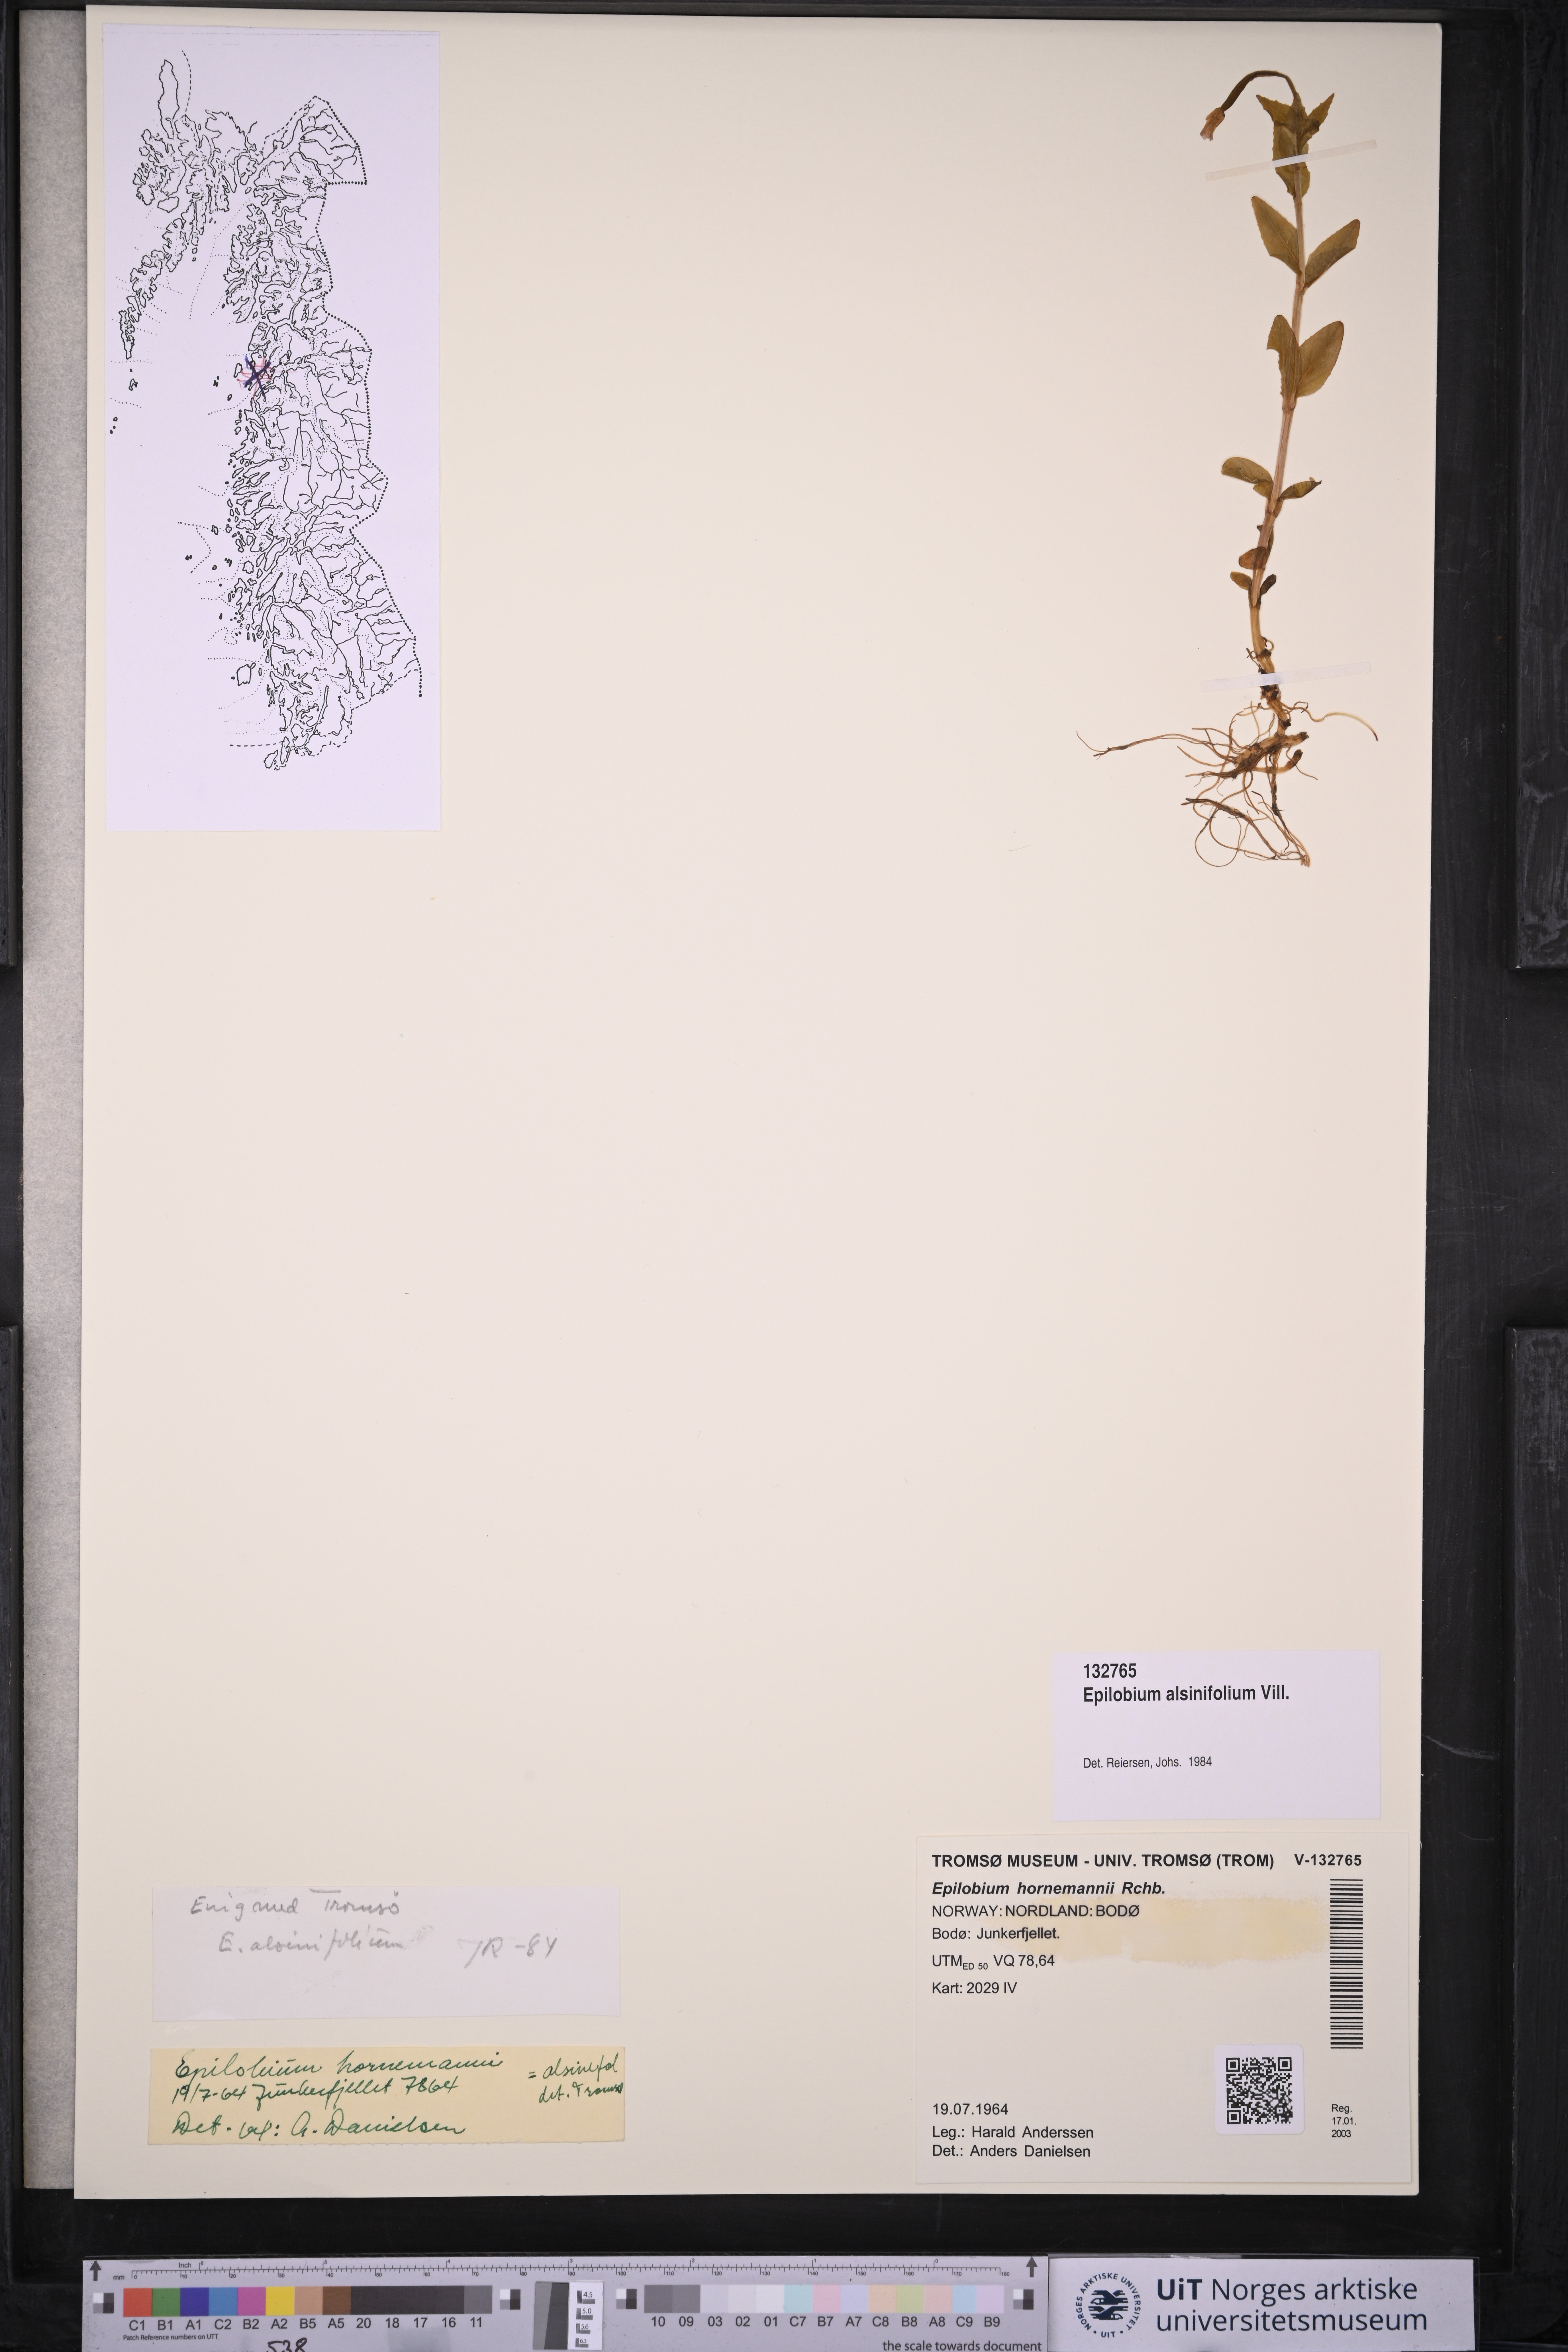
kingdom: Plantae
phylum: Tracheophyta
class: Magnoliopsida
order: Myrtales
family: Onagraceae
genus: Epilobium
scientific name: Epilobium alsinifolium
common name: Chickweed willowherb
